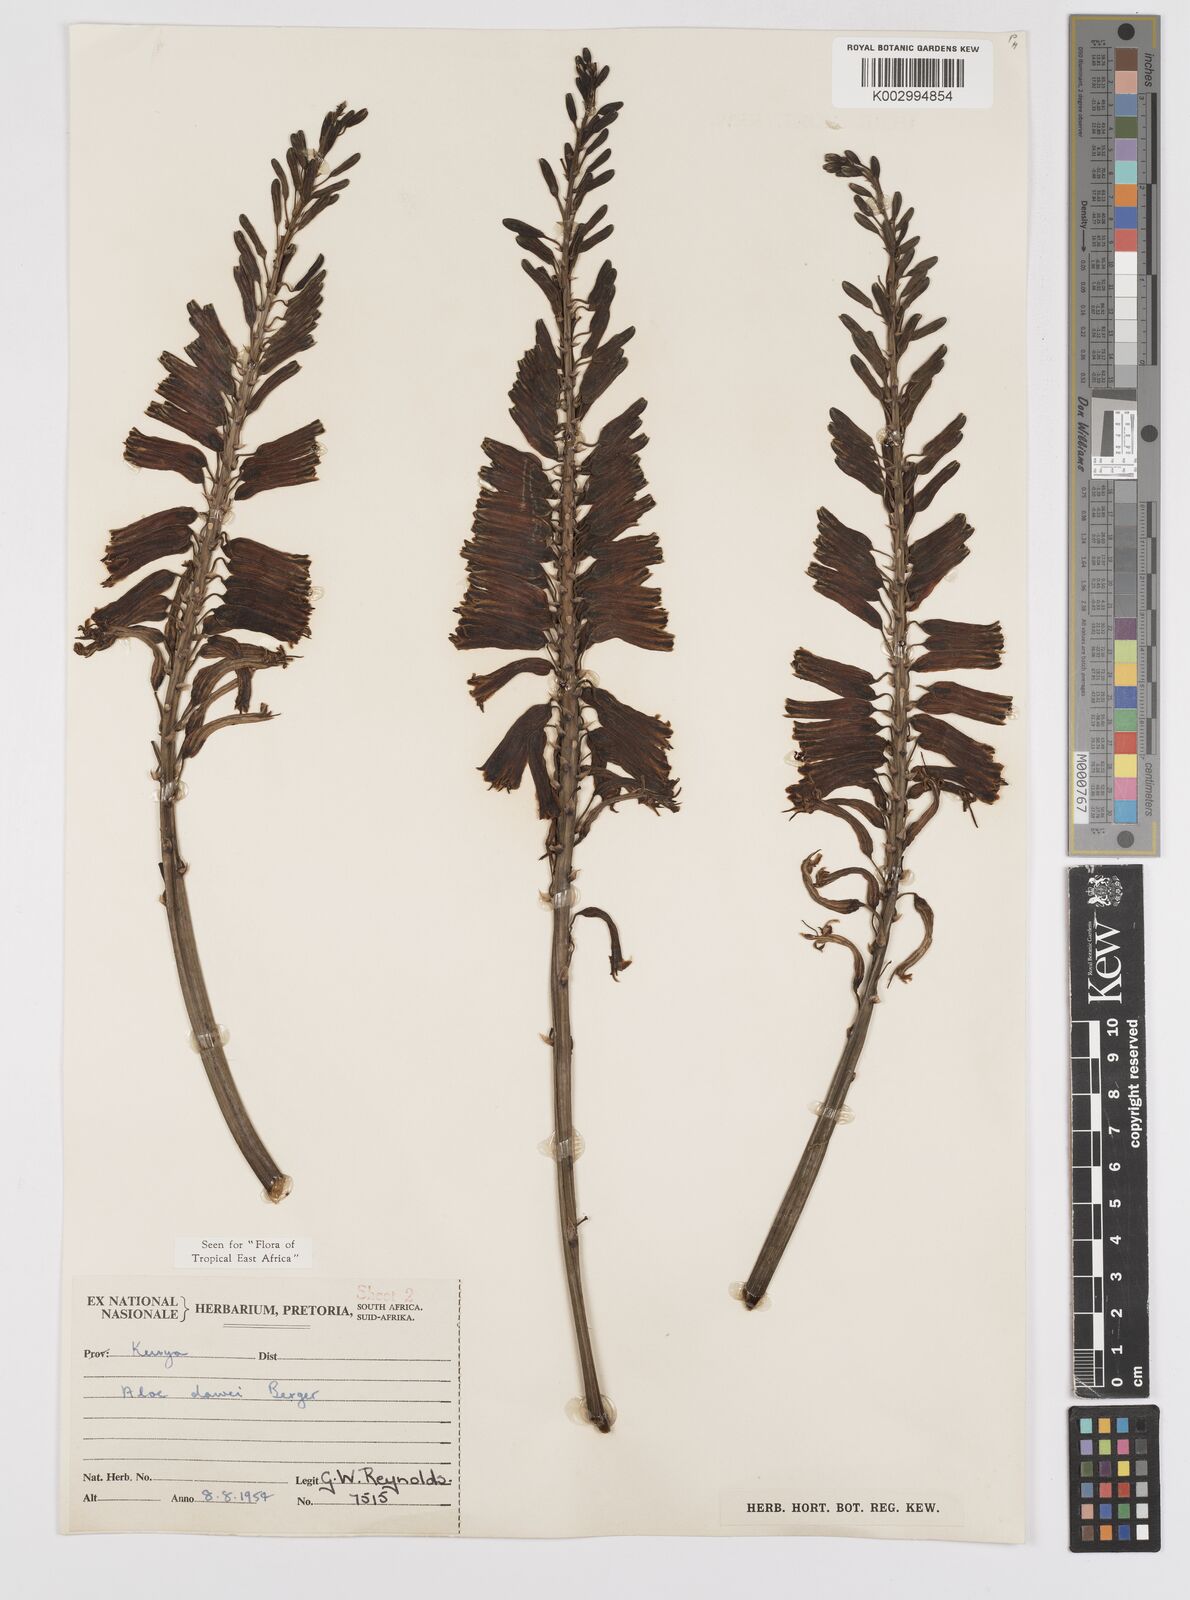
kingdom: Plantae
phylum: Tracheophyta
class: Liliopsida
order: Asparagales
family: Asphodelaceae
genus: Aloe
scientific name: Aloe dawei
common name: Orange flame aloe
